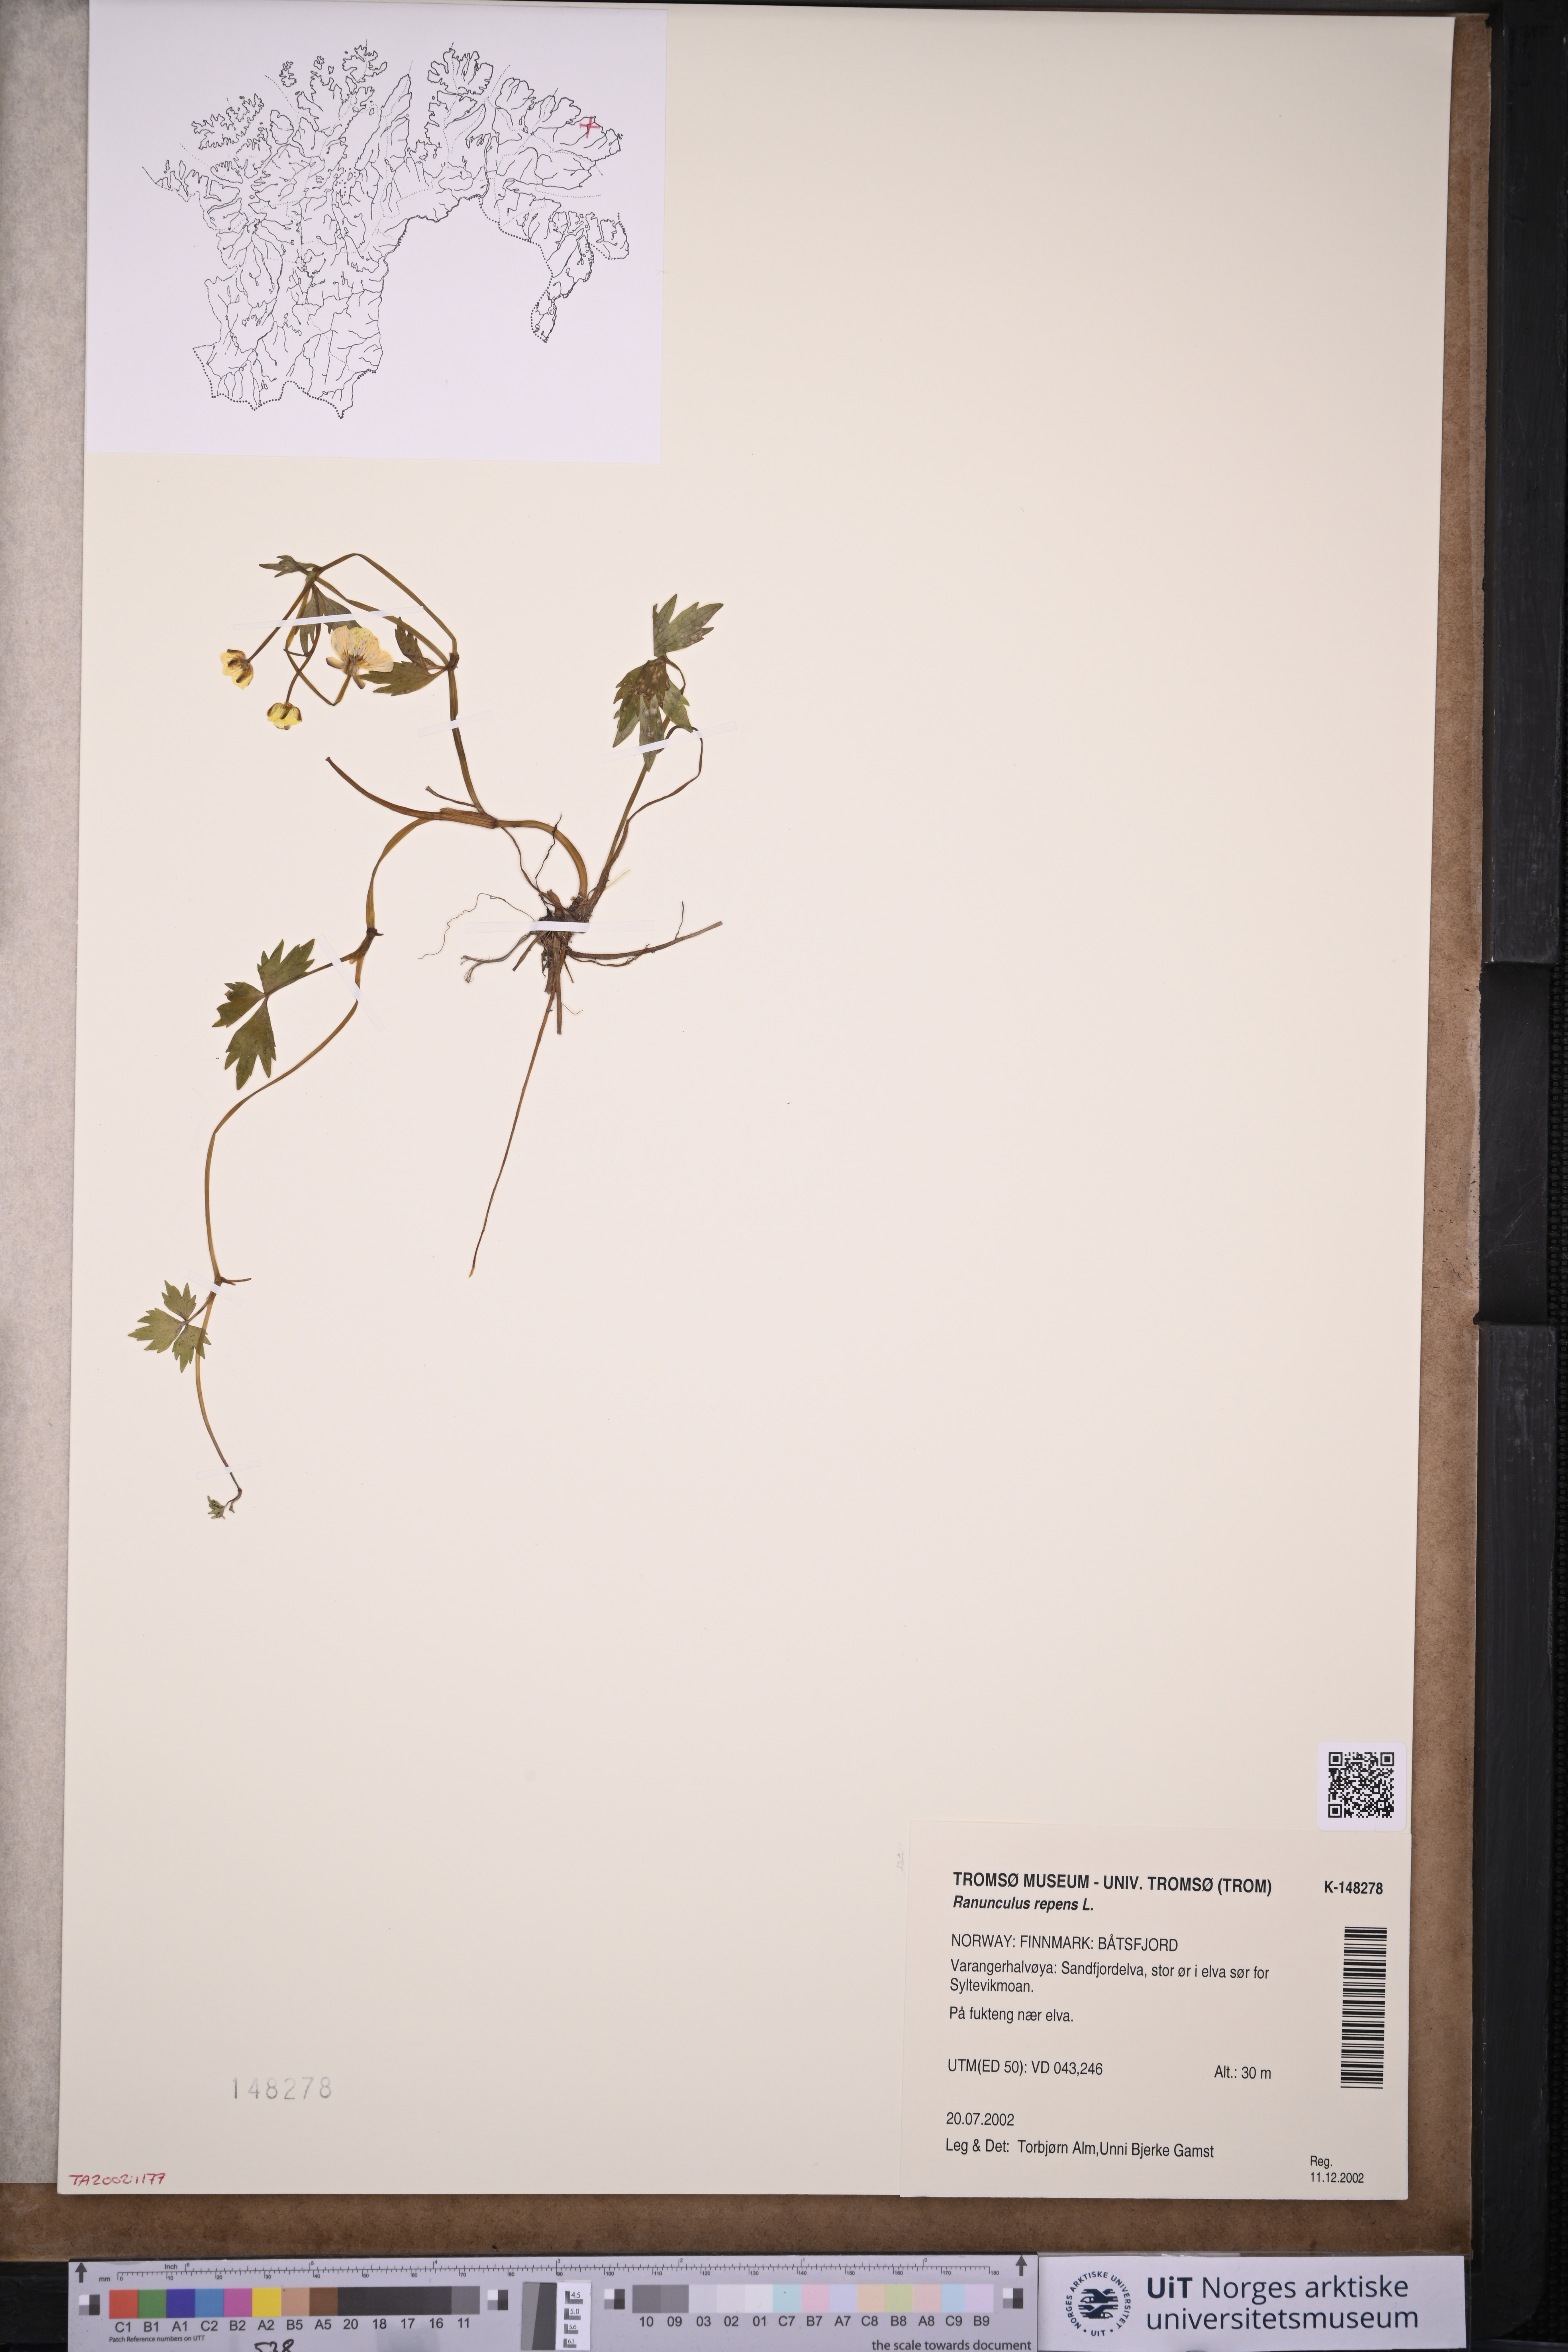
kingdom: Plantae
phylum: Tracheophyta
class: Magnoliopsida
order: Ranunculales
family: Ranunculaceae
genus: Ranunculus
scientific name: Ranunculus repens
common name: Creeping buttercup
